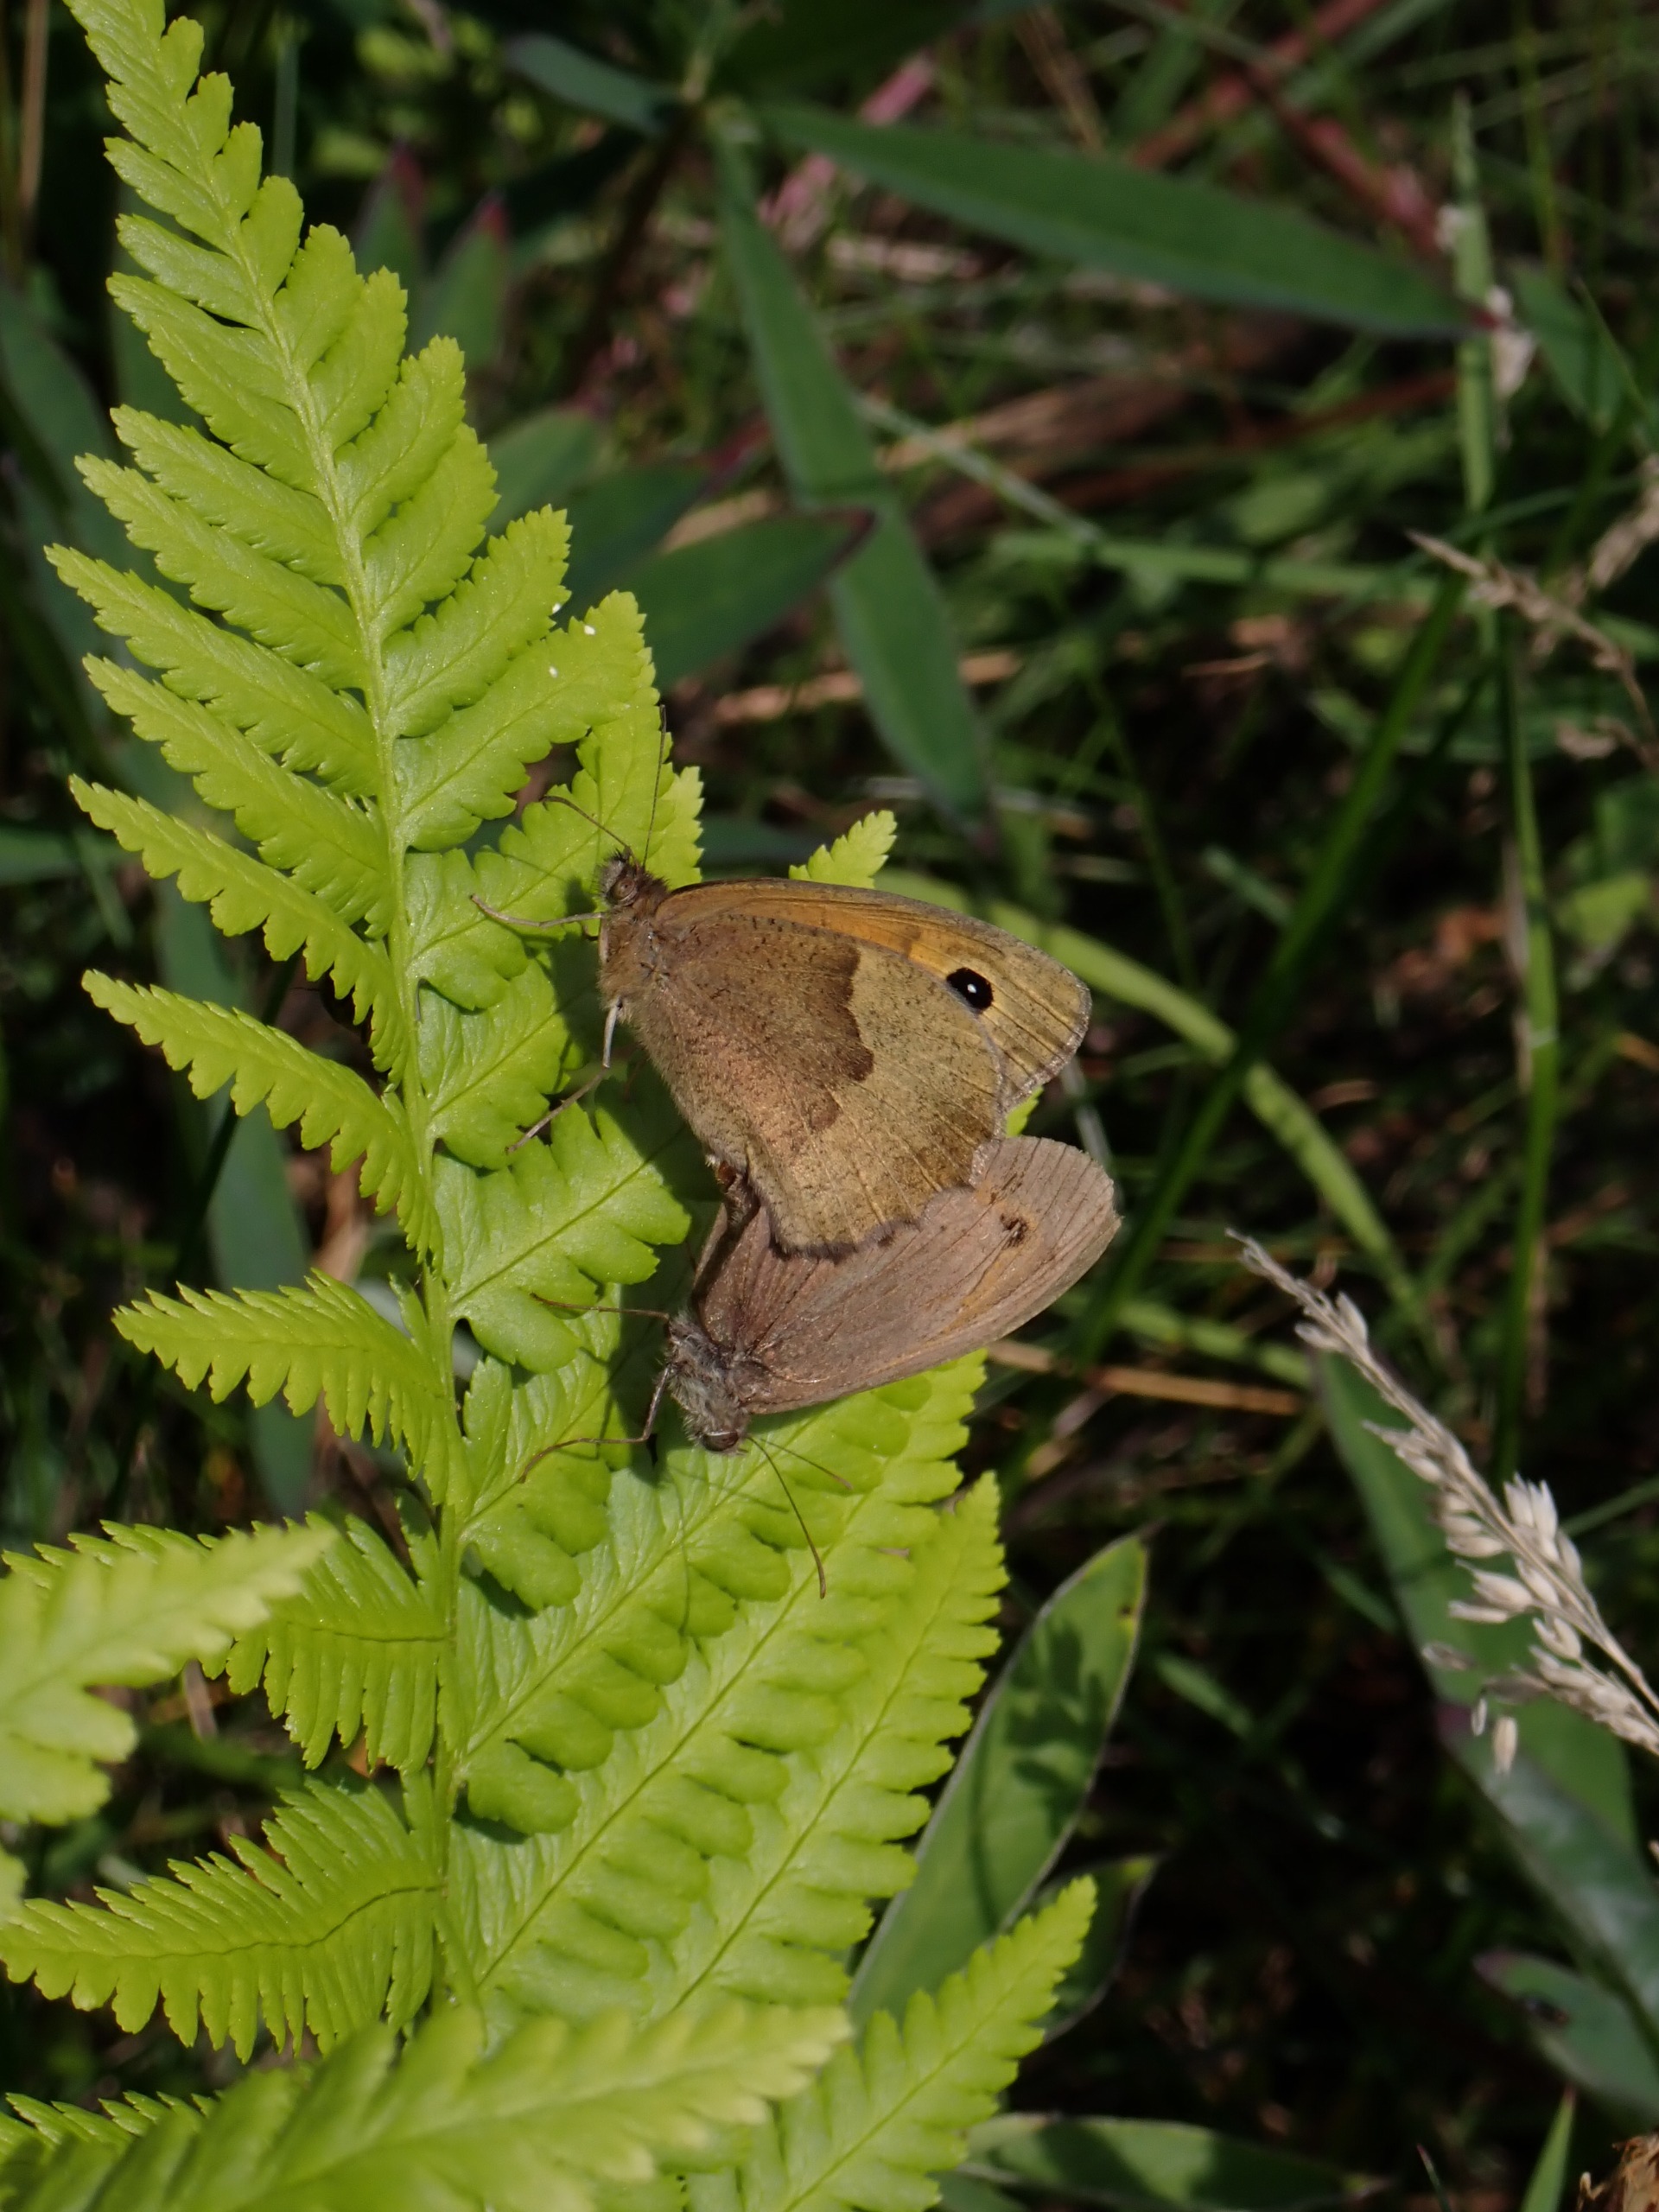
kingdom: Animalia
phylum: Arthropoda
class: Insecta
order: Lepidoptera
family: Nymphalidae
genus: Maniola
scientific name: Maniola jurtina
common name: Græsrandøje
